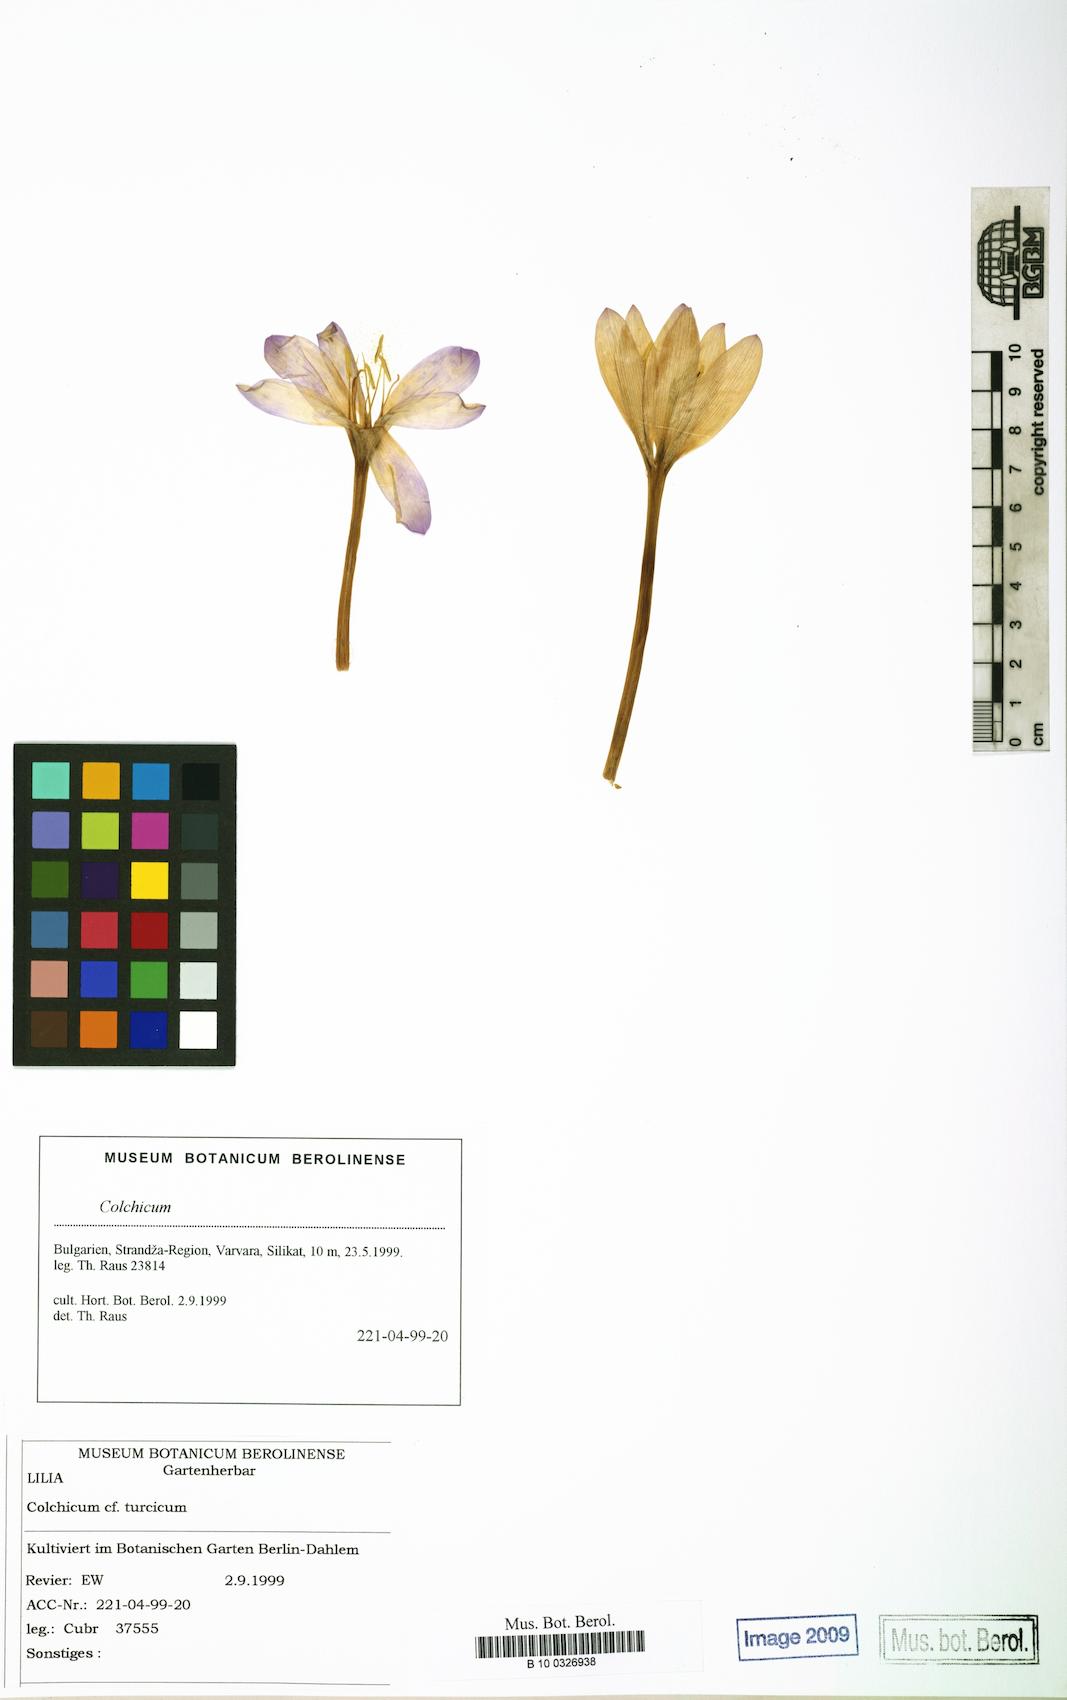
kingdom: Plantae
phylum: Tracheophyta
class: Liliopsida
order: Liliales
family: Colchicaceae
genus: Colchicum
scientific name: Colchicum turcicum
